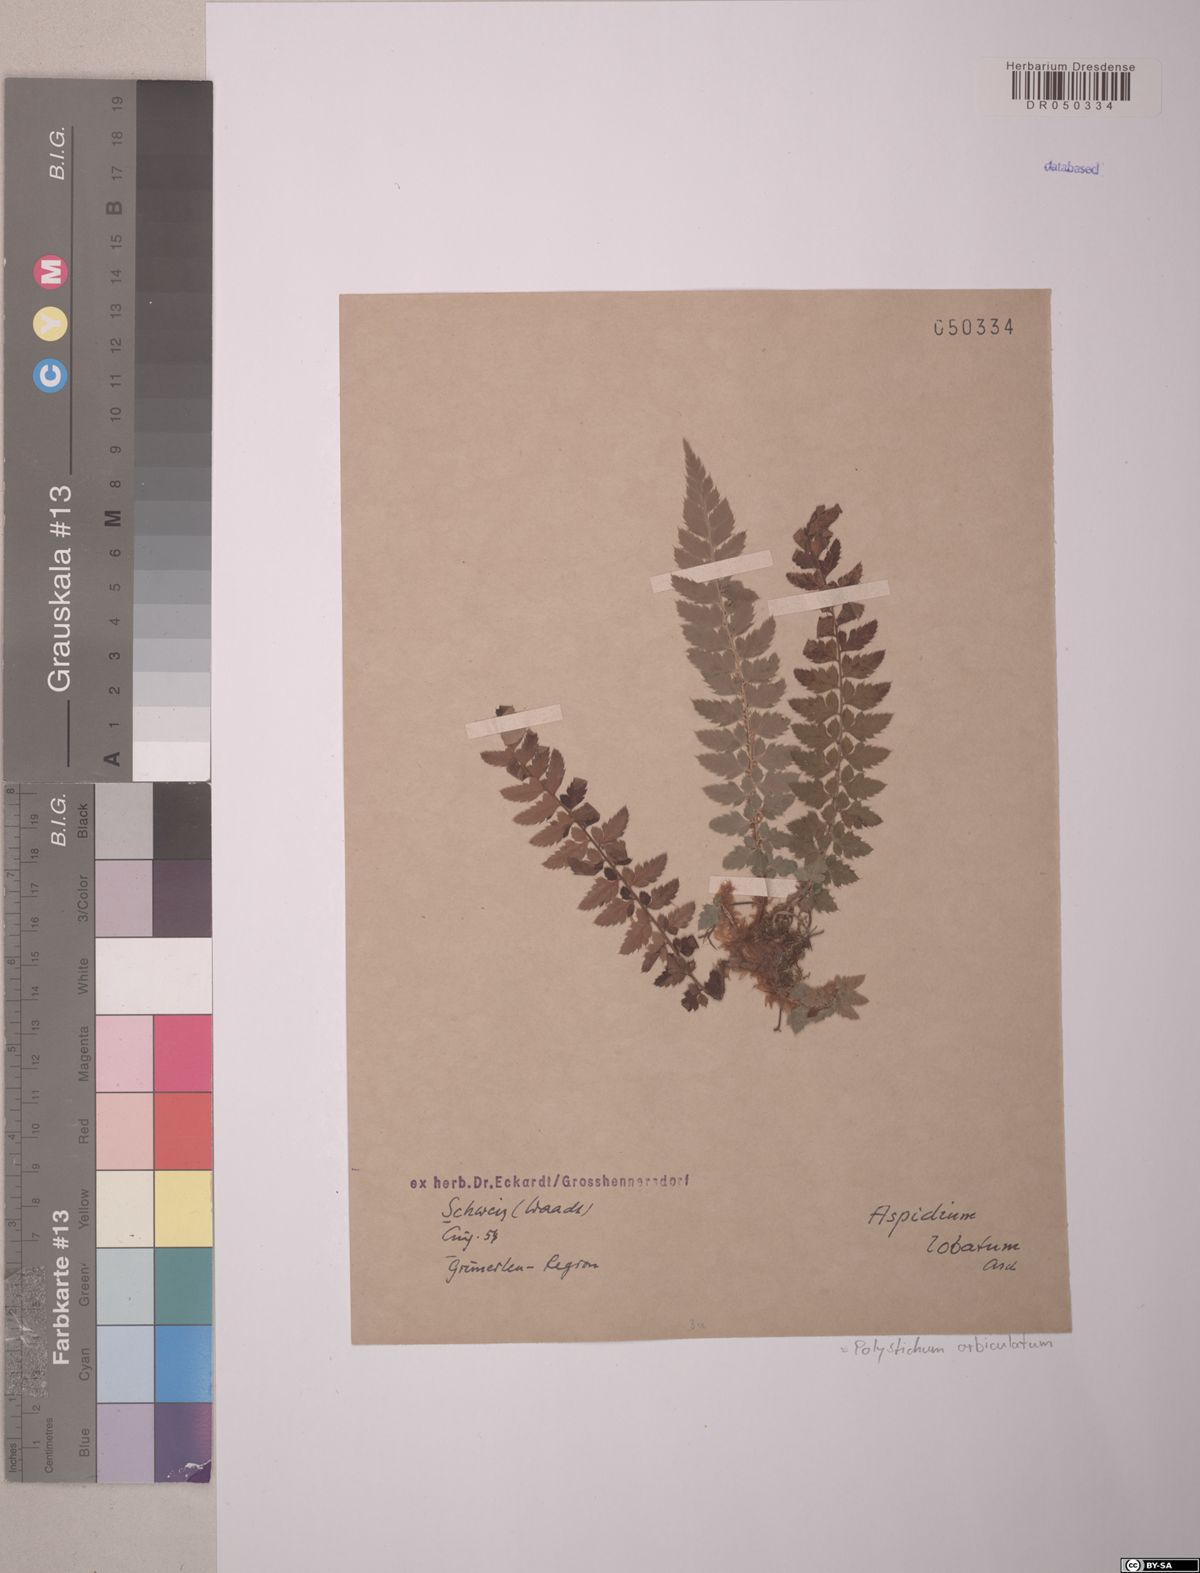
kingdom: Plantae
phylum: Tracheophyta
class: Polypodiopsida
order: Polypodiales
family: Dryopteridaceae
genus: Polystichum
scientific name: Polystichum aculeatum
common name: Hard shield-fern
